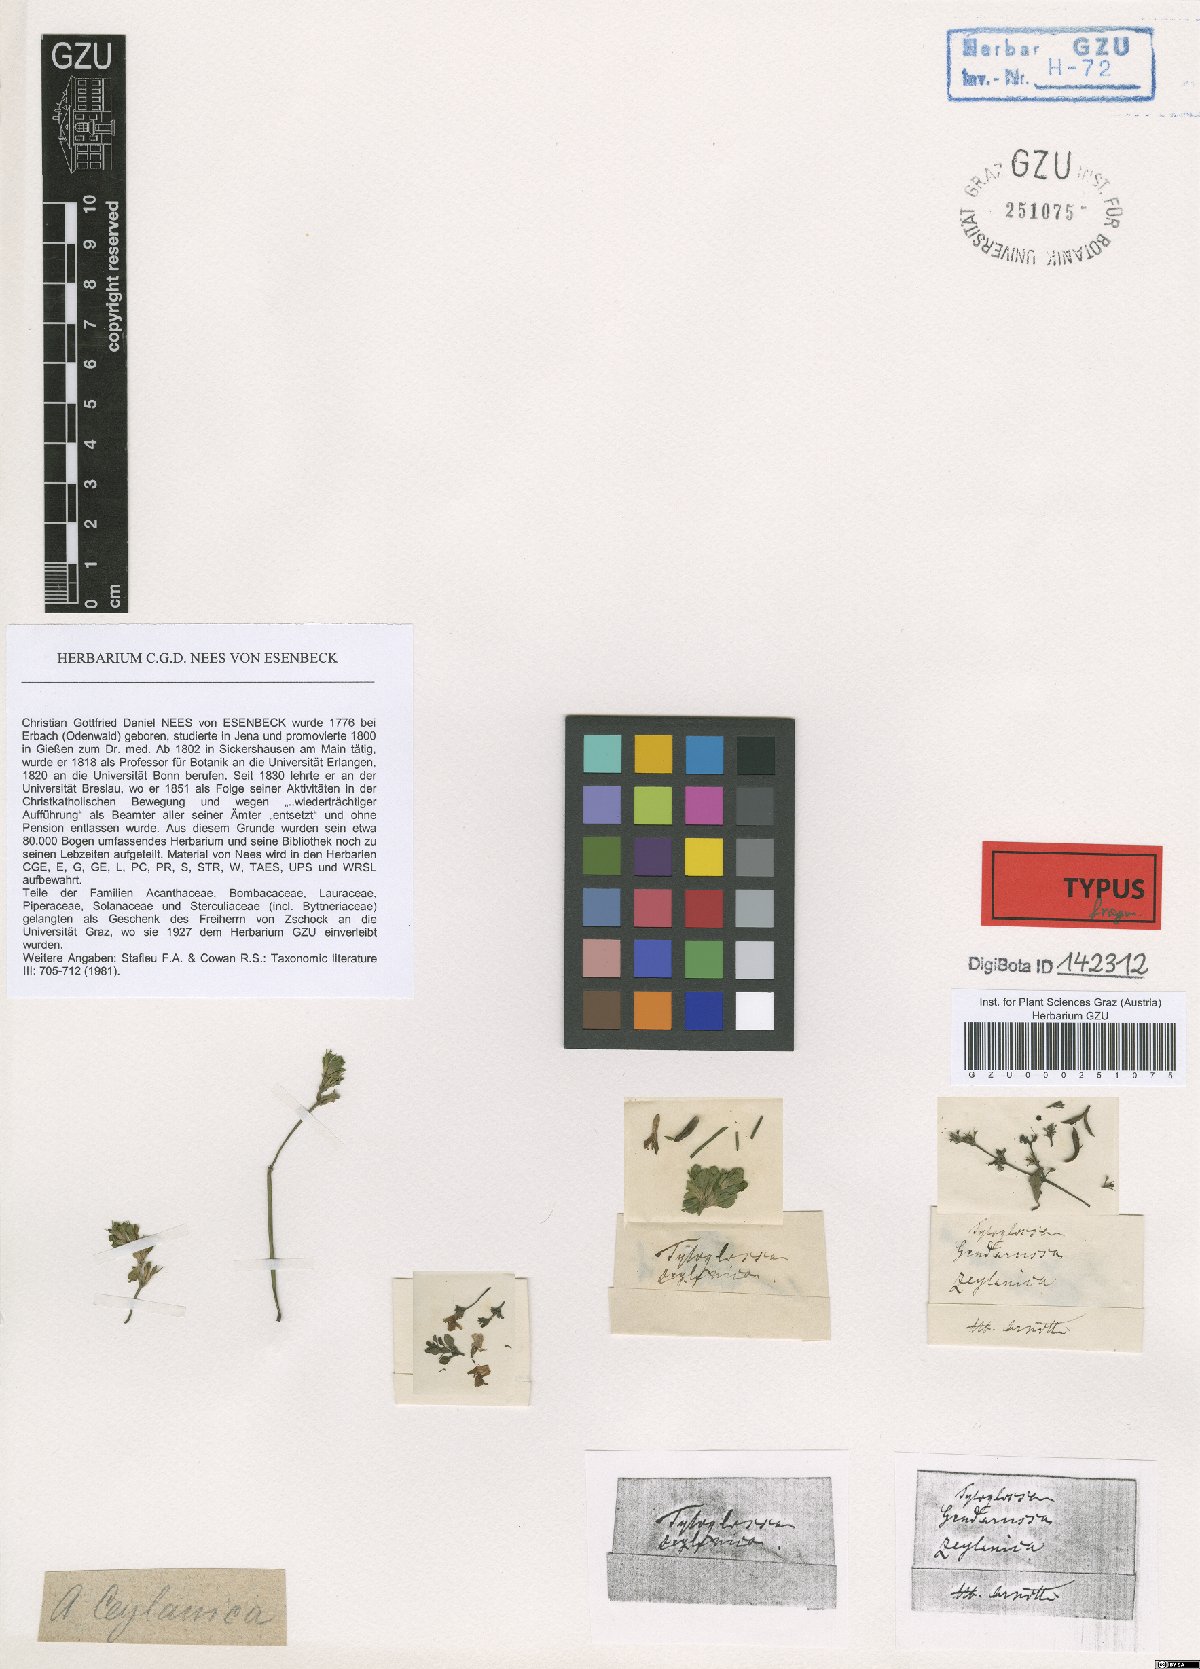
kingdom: Plantae
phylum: Tracheophyta
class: Magnoliopsida
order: Lamiales
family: Acanthaceae
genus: Justicia
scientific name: Justicia ceylanica
